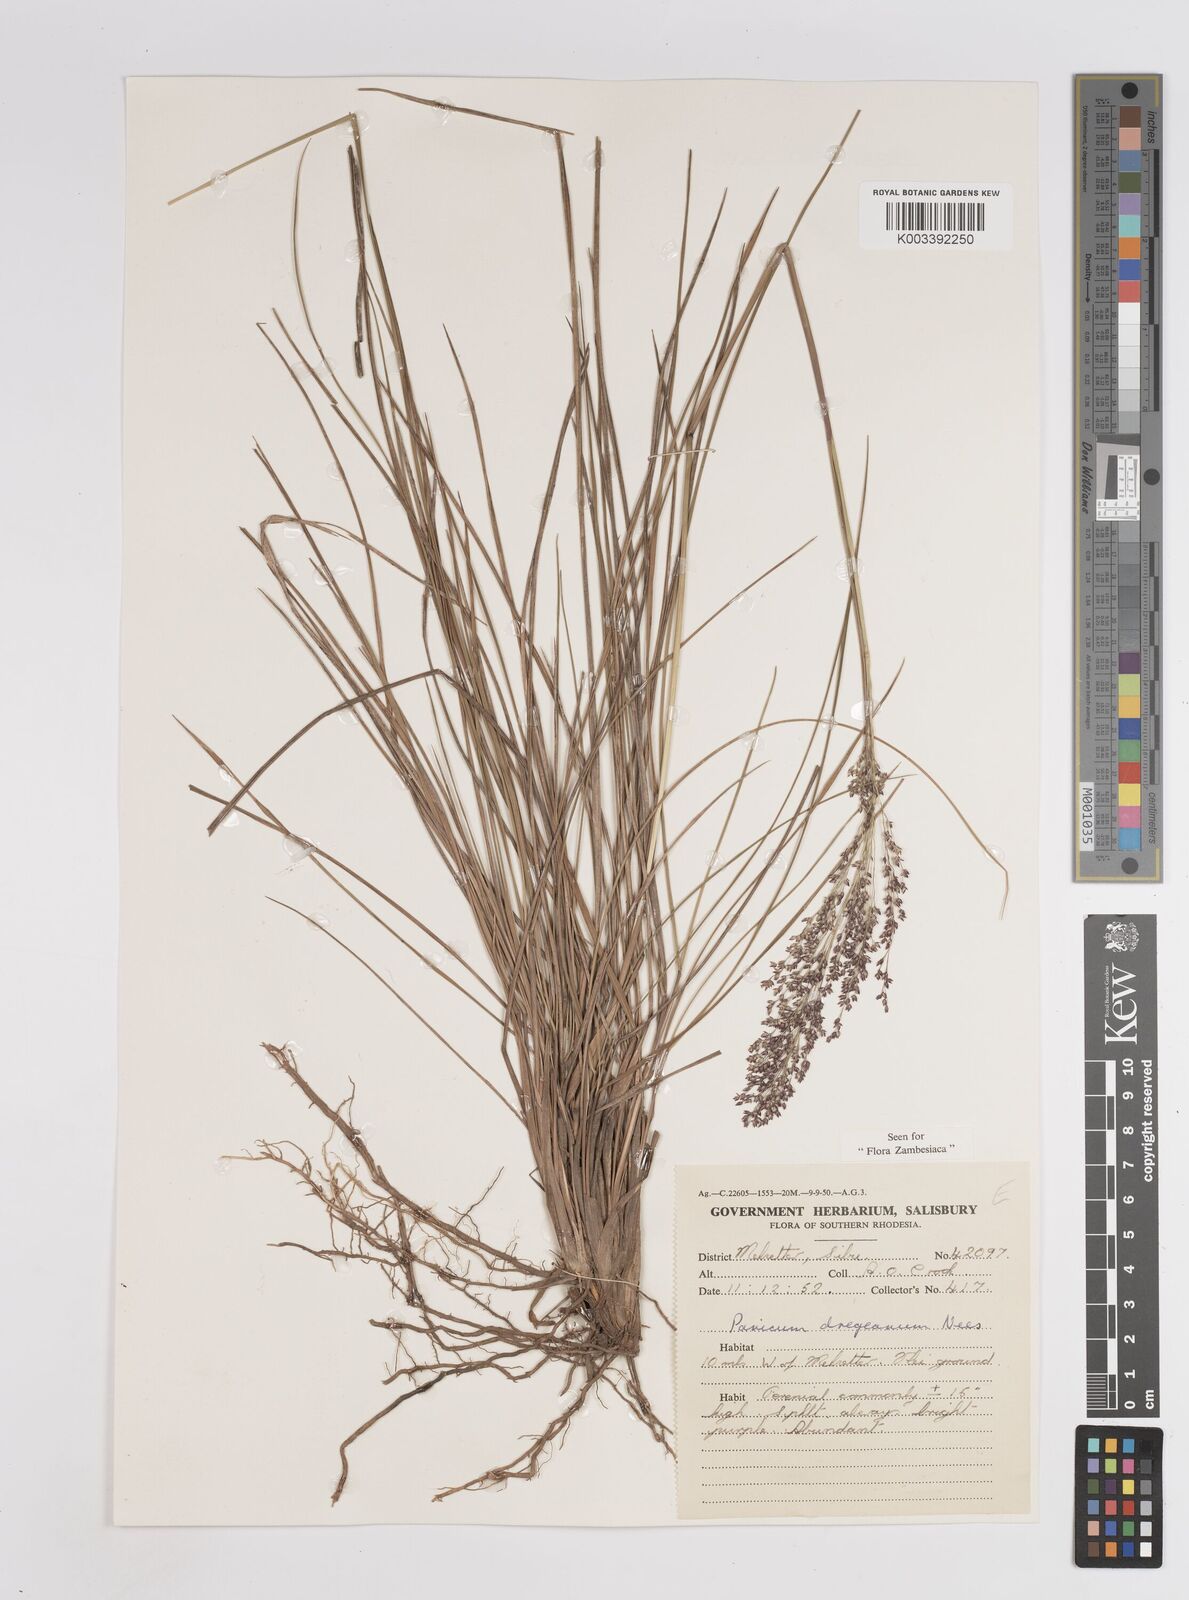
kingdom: Plantae
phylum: Tracheophyta
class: Liliopsida
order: Poales
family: Poaceae
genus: Panicum
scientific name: Panicum dregeanum
